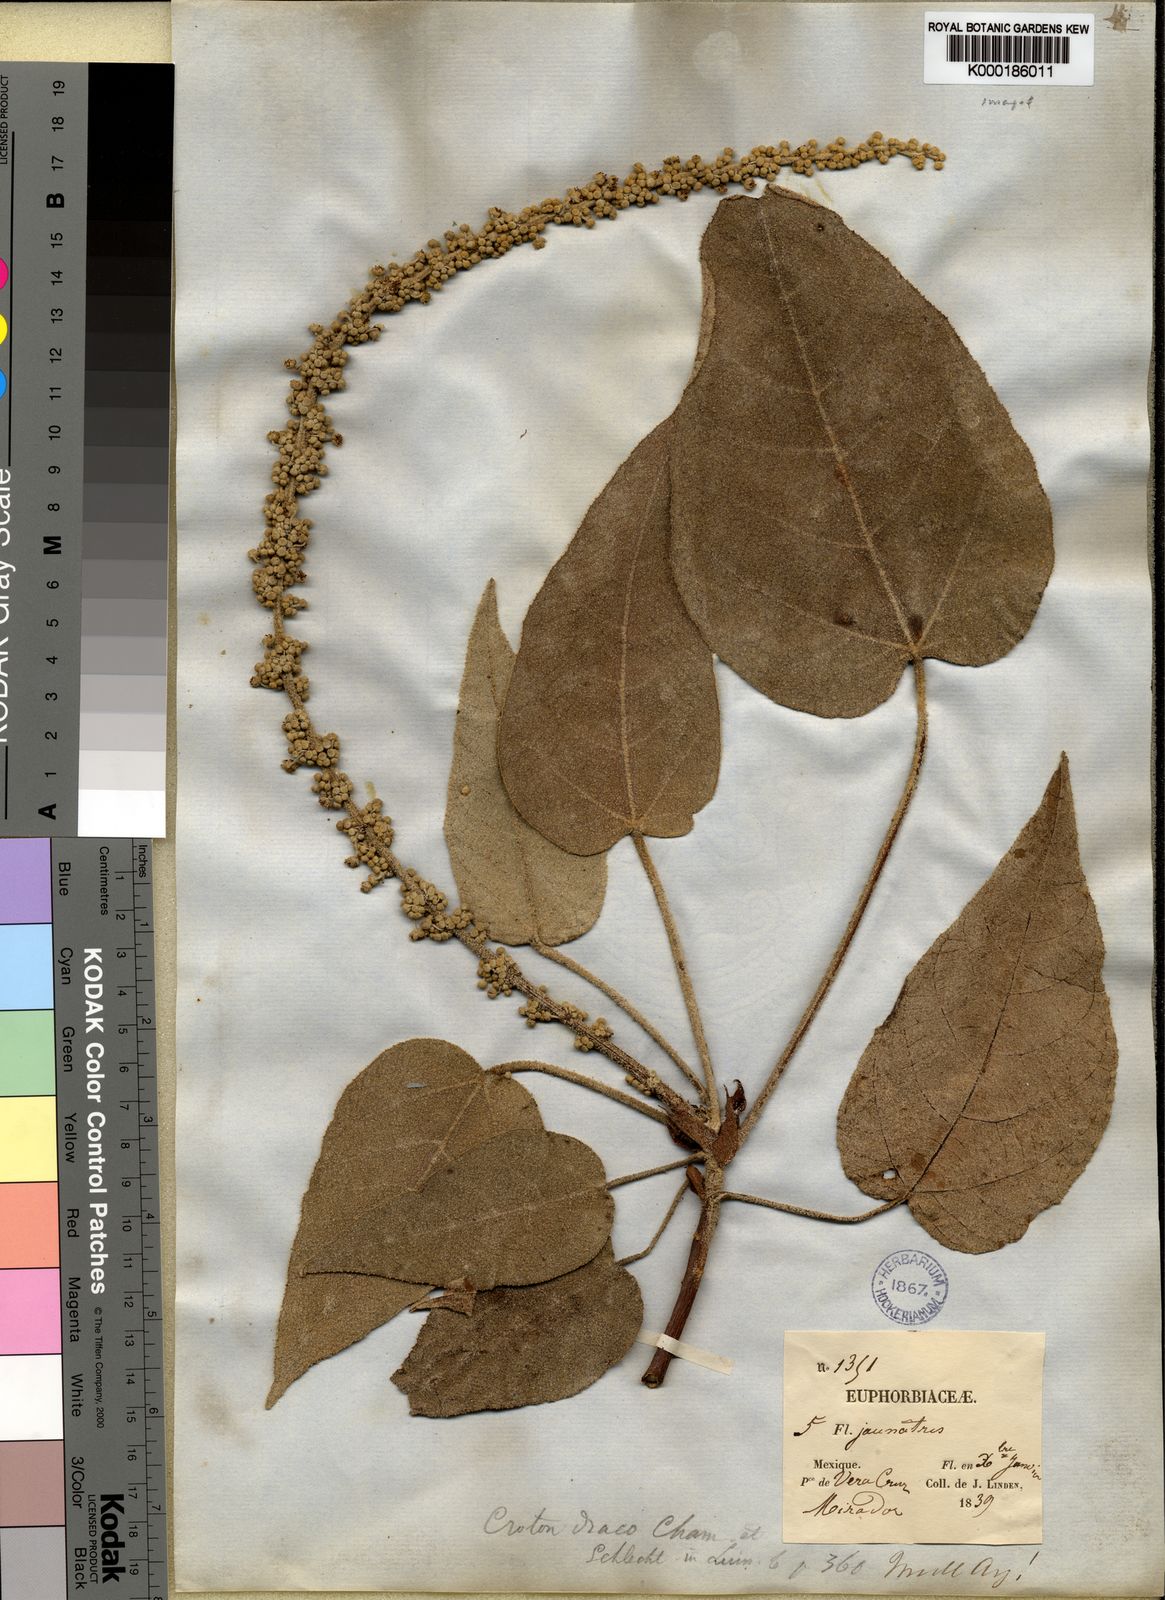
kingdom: Plantae
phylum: Tracheophyta
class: Magnoliopsida
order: Malpighiales
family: Euphorbiaceae
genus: Croton
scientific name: Croton draco
